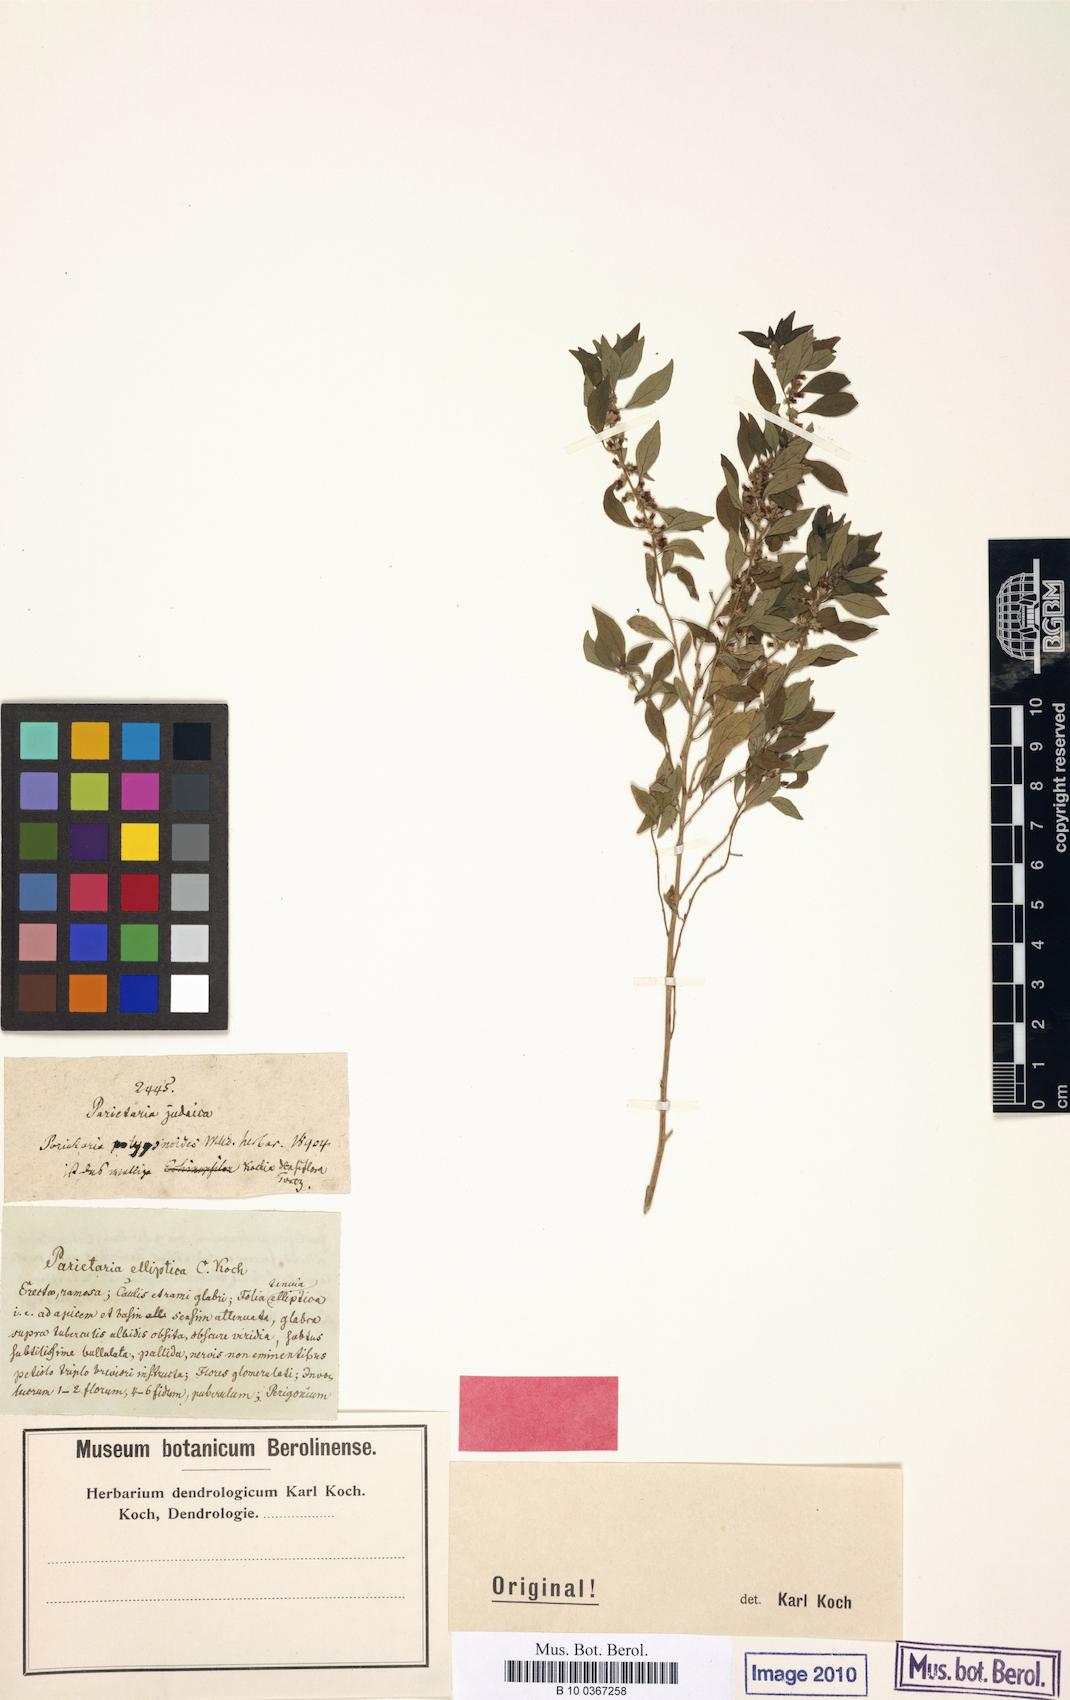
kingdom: Plantae
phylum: Tracheophyta
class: Magnoliopsida
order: Rosales
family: Urticaceae
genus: Parietaria
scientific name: Parietaria elliptica
